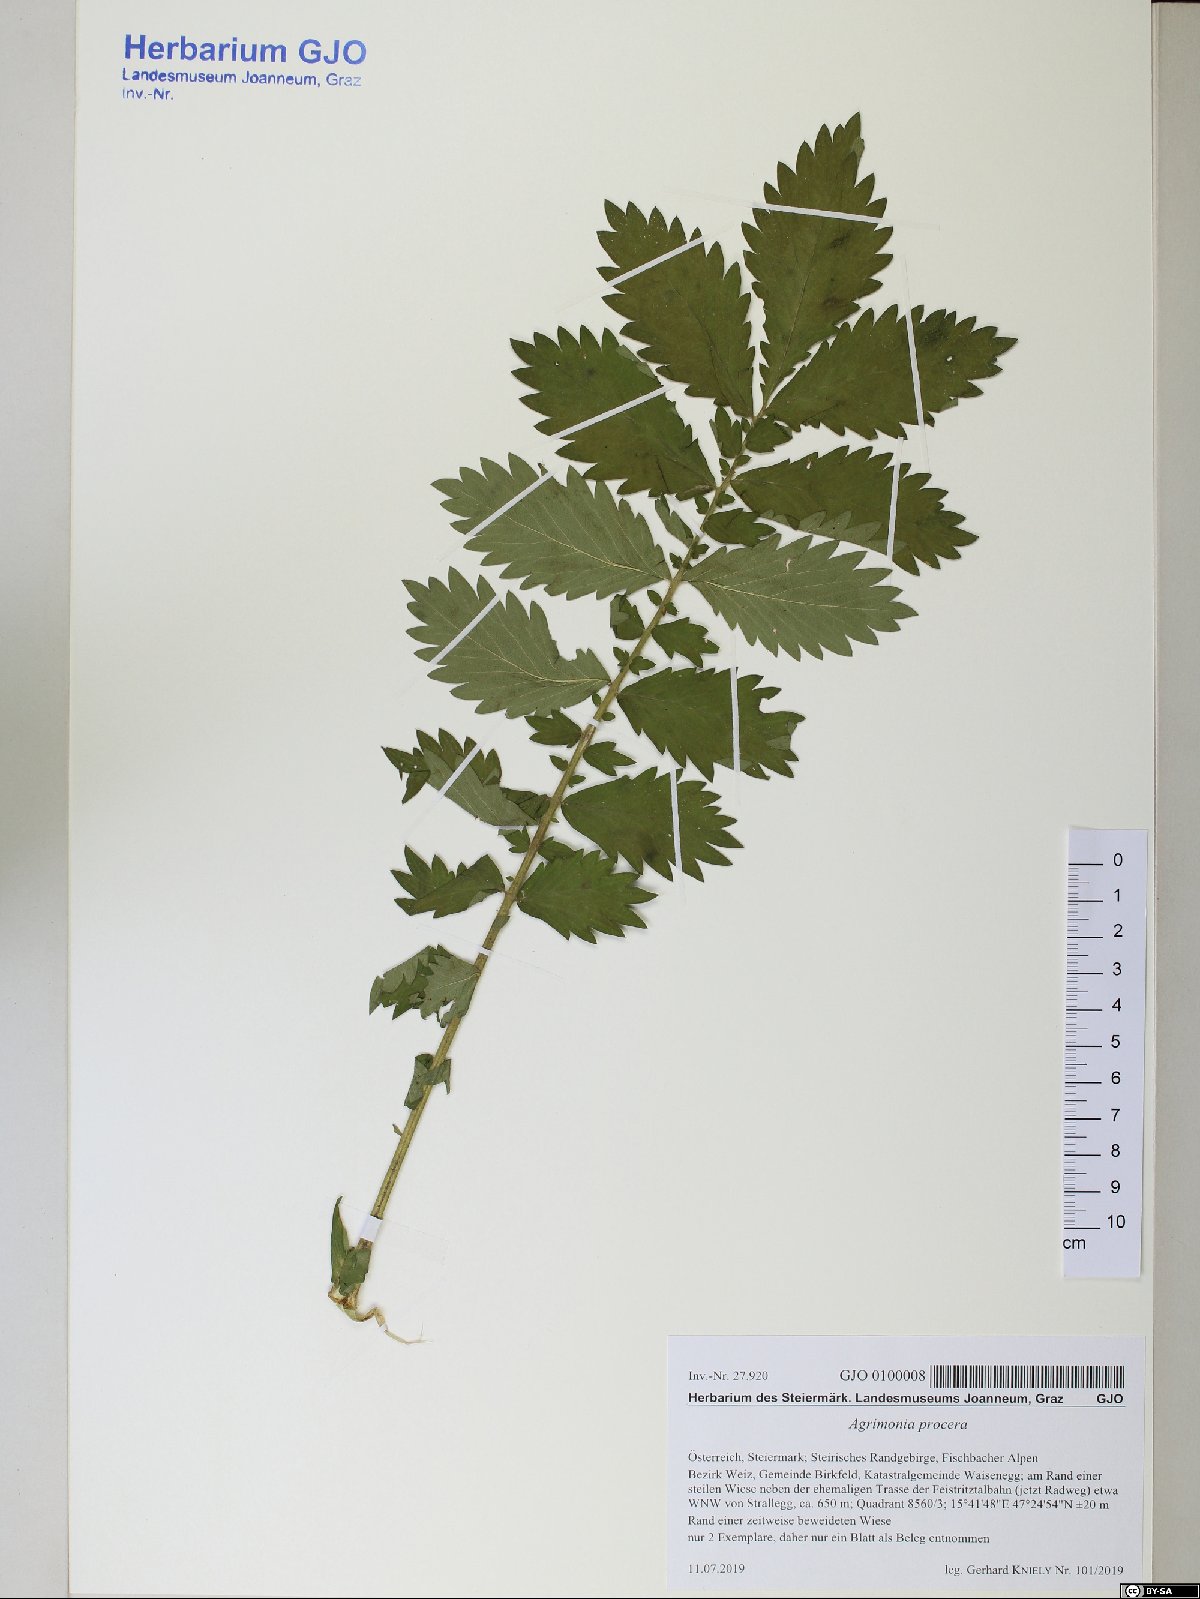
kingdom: Plantae
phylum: Tracheophyta
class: Magnoliopsida
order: Rosales
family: Rosaceae
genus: Agrimonia
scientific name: Agrimonia procera
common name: Fragrant agrimony
